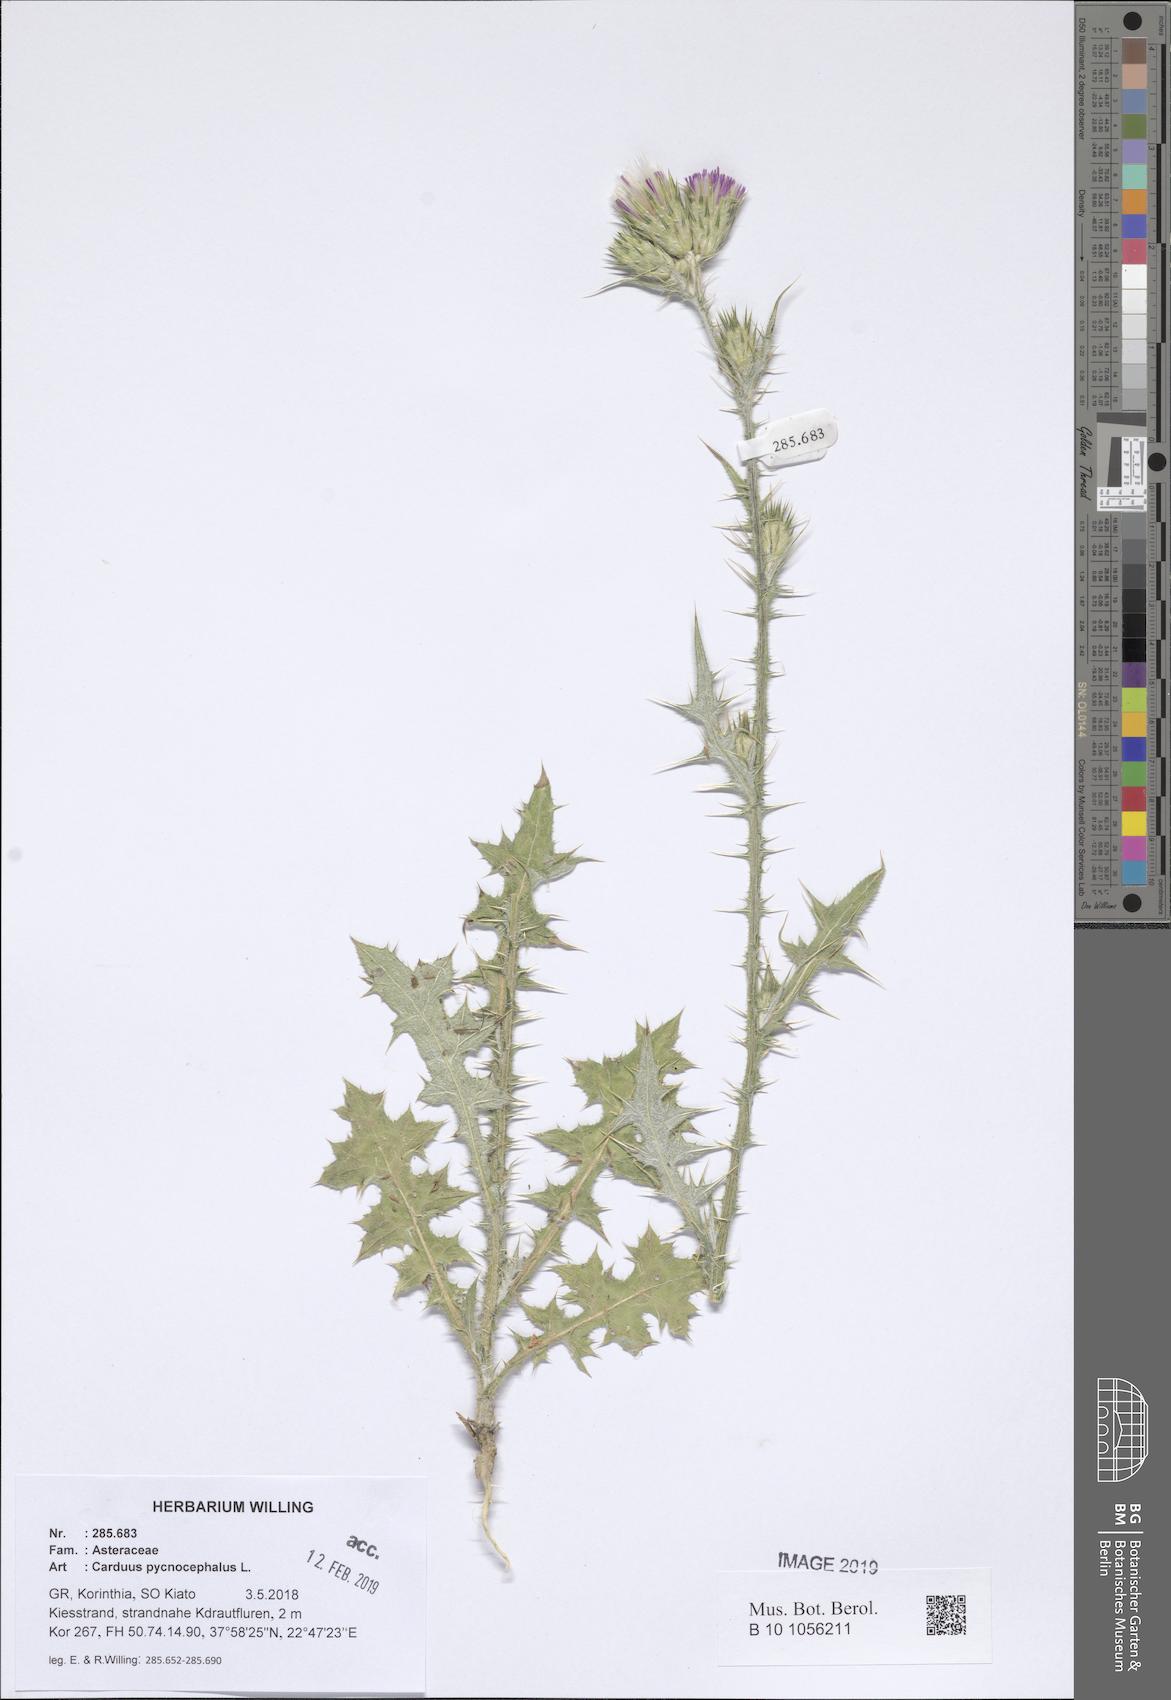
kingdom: Plantae
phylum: Tracheophyta
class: Magnoliopsida
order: Asterales
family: Asteraceae
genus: Carduus
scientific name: Carduus pycnocephalus
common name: Plymouth thistle
